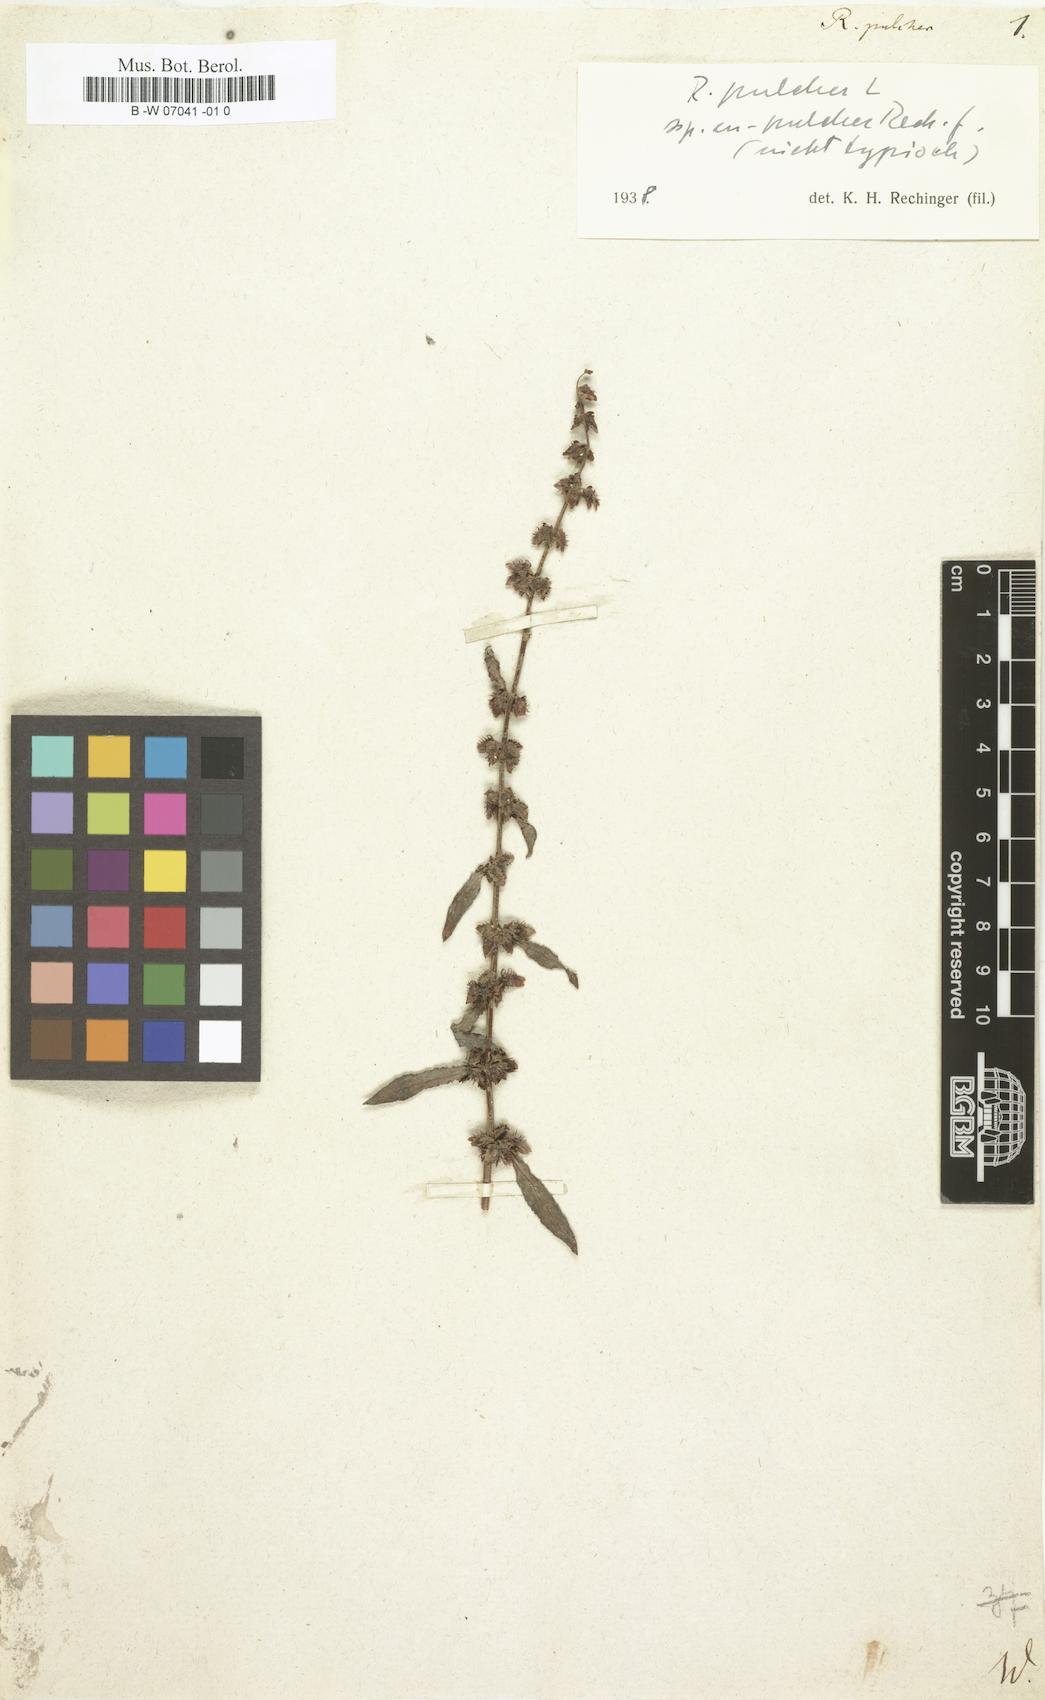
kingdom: Plantae
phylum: Tracheophyta
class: Magnoliopsida
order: Caryophyllales
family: Polygonaceae
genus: Rumex
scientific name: Rumex pulcher
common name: Fiddle dock
